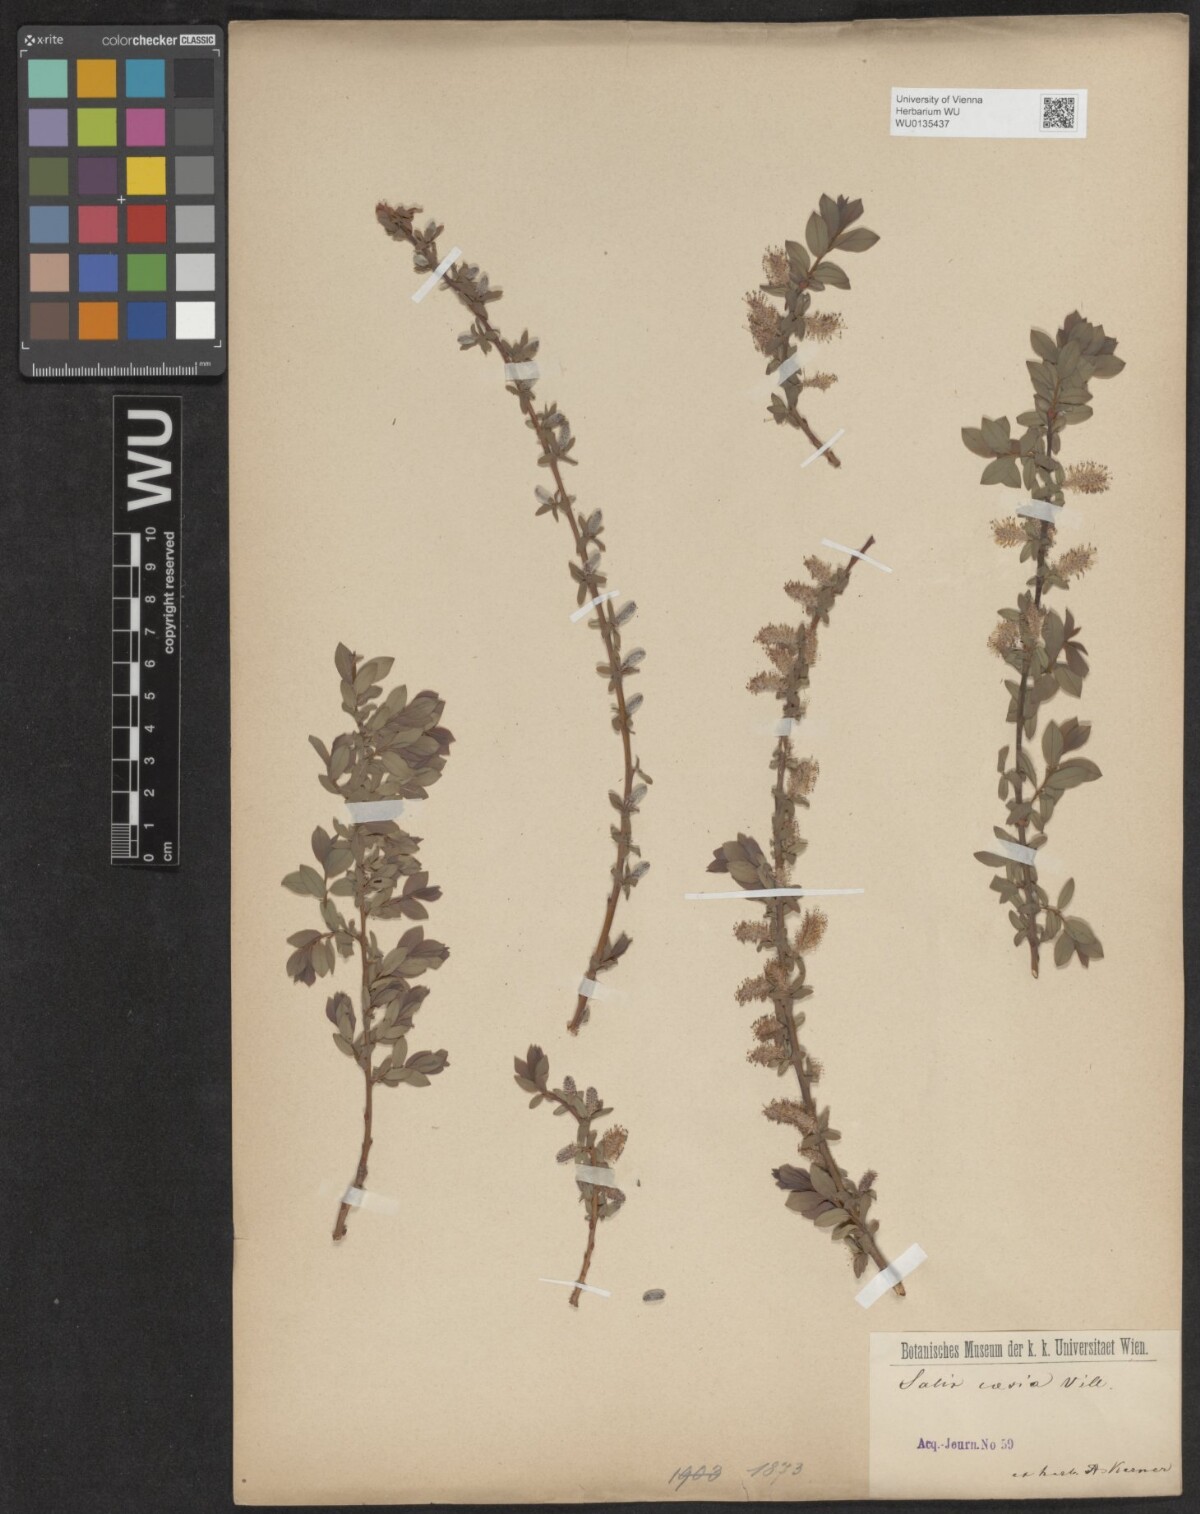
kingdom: Plantae
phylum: Tracheophyta
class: Magnoliopsida
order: Malpighiales
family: Salicaceae
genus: Salix
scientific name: Salix caesia
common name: Blue willow
